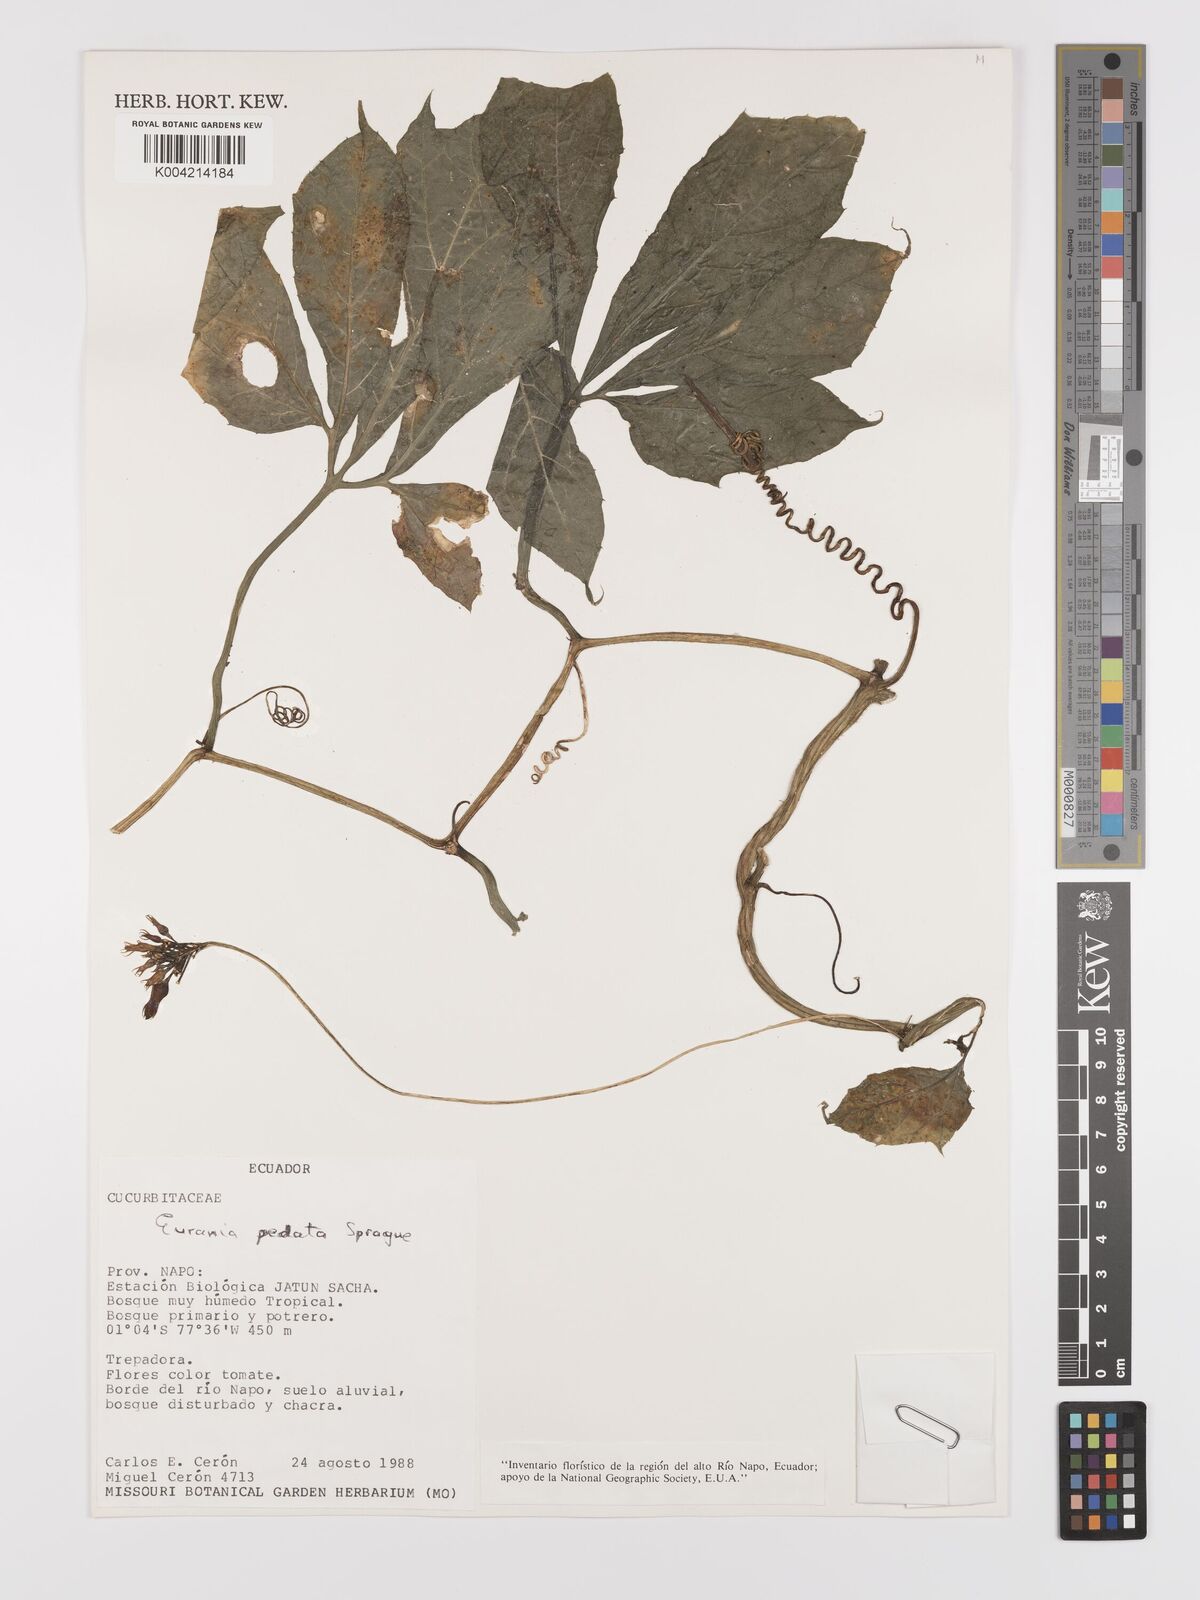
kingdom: Plantae
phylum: Tracheophyta
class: Magnoliopsida
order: Cucurbitales
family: Cucurbitaceae
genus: Gurania
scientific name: Gurania pedata
